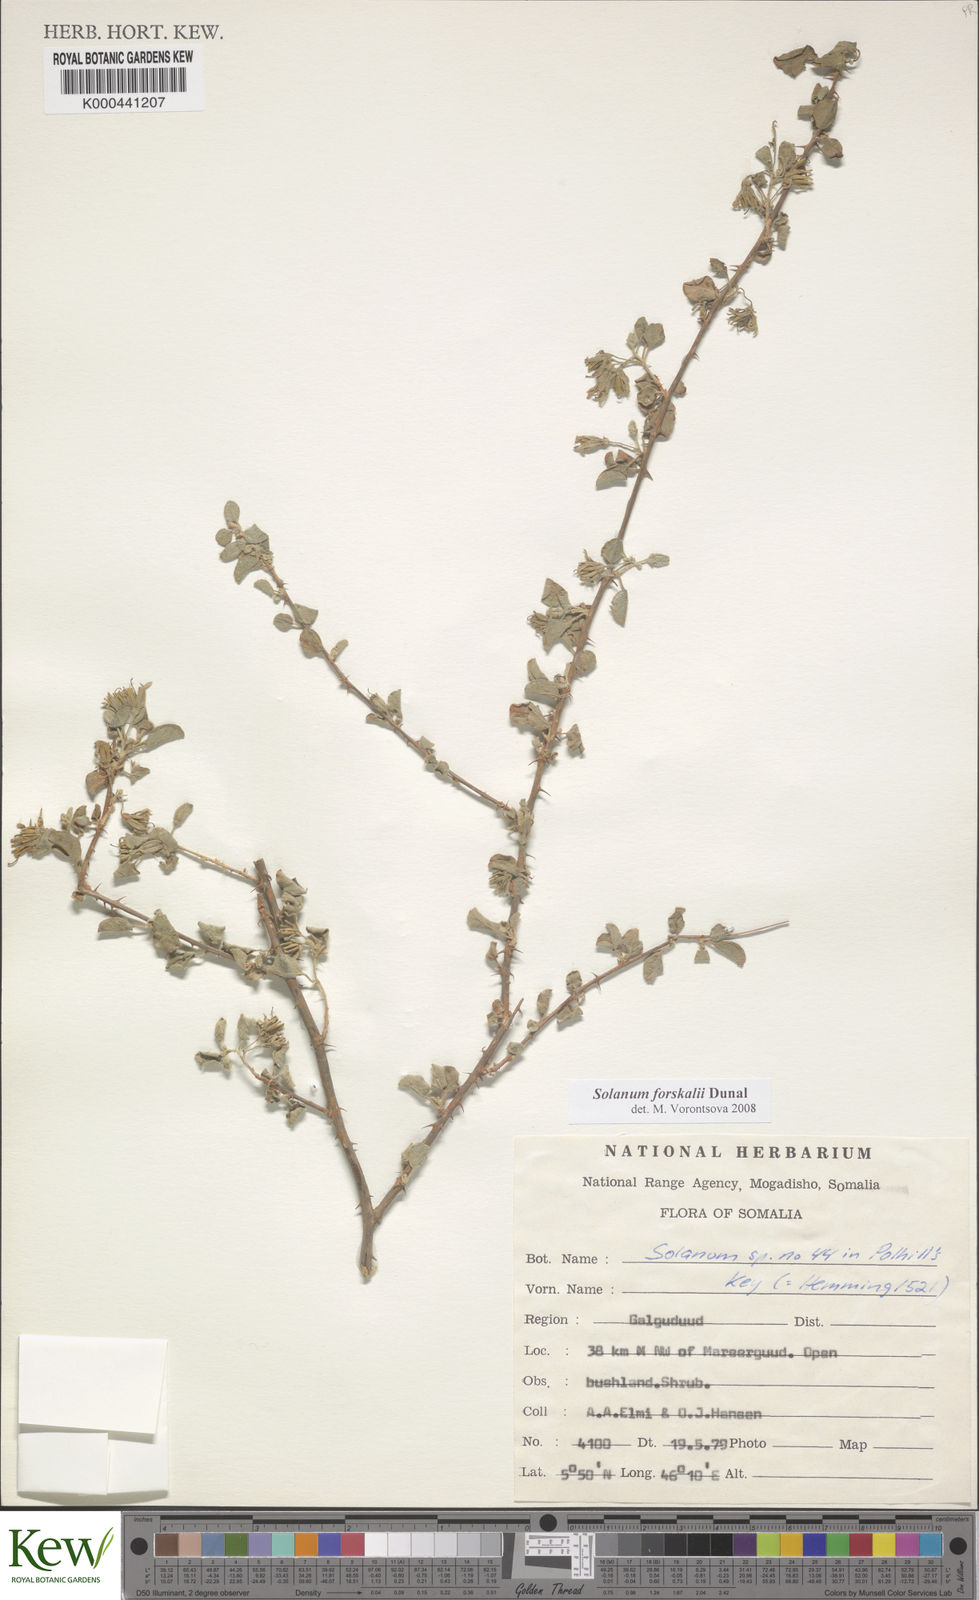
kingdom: Plantae
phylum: Tracheophyta
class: Magnoliopsida
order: Solanales
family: Solanaceae
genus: Solanum
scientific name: Solanum
